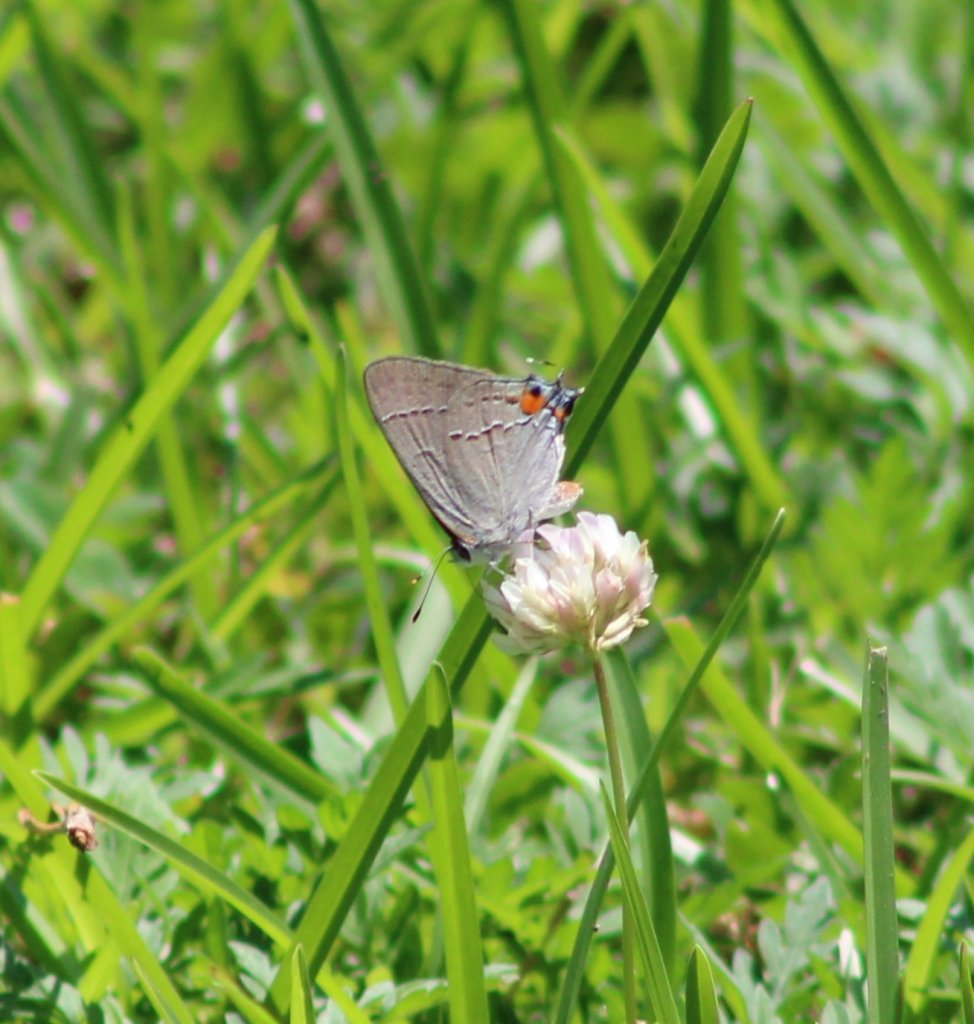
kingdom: Animalia
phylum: Arthropoda
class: Insecta
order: Lepidoptera
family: Lycaenidae
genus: Strymon
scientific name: Strymon melinus
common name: Gray Hairstreak
